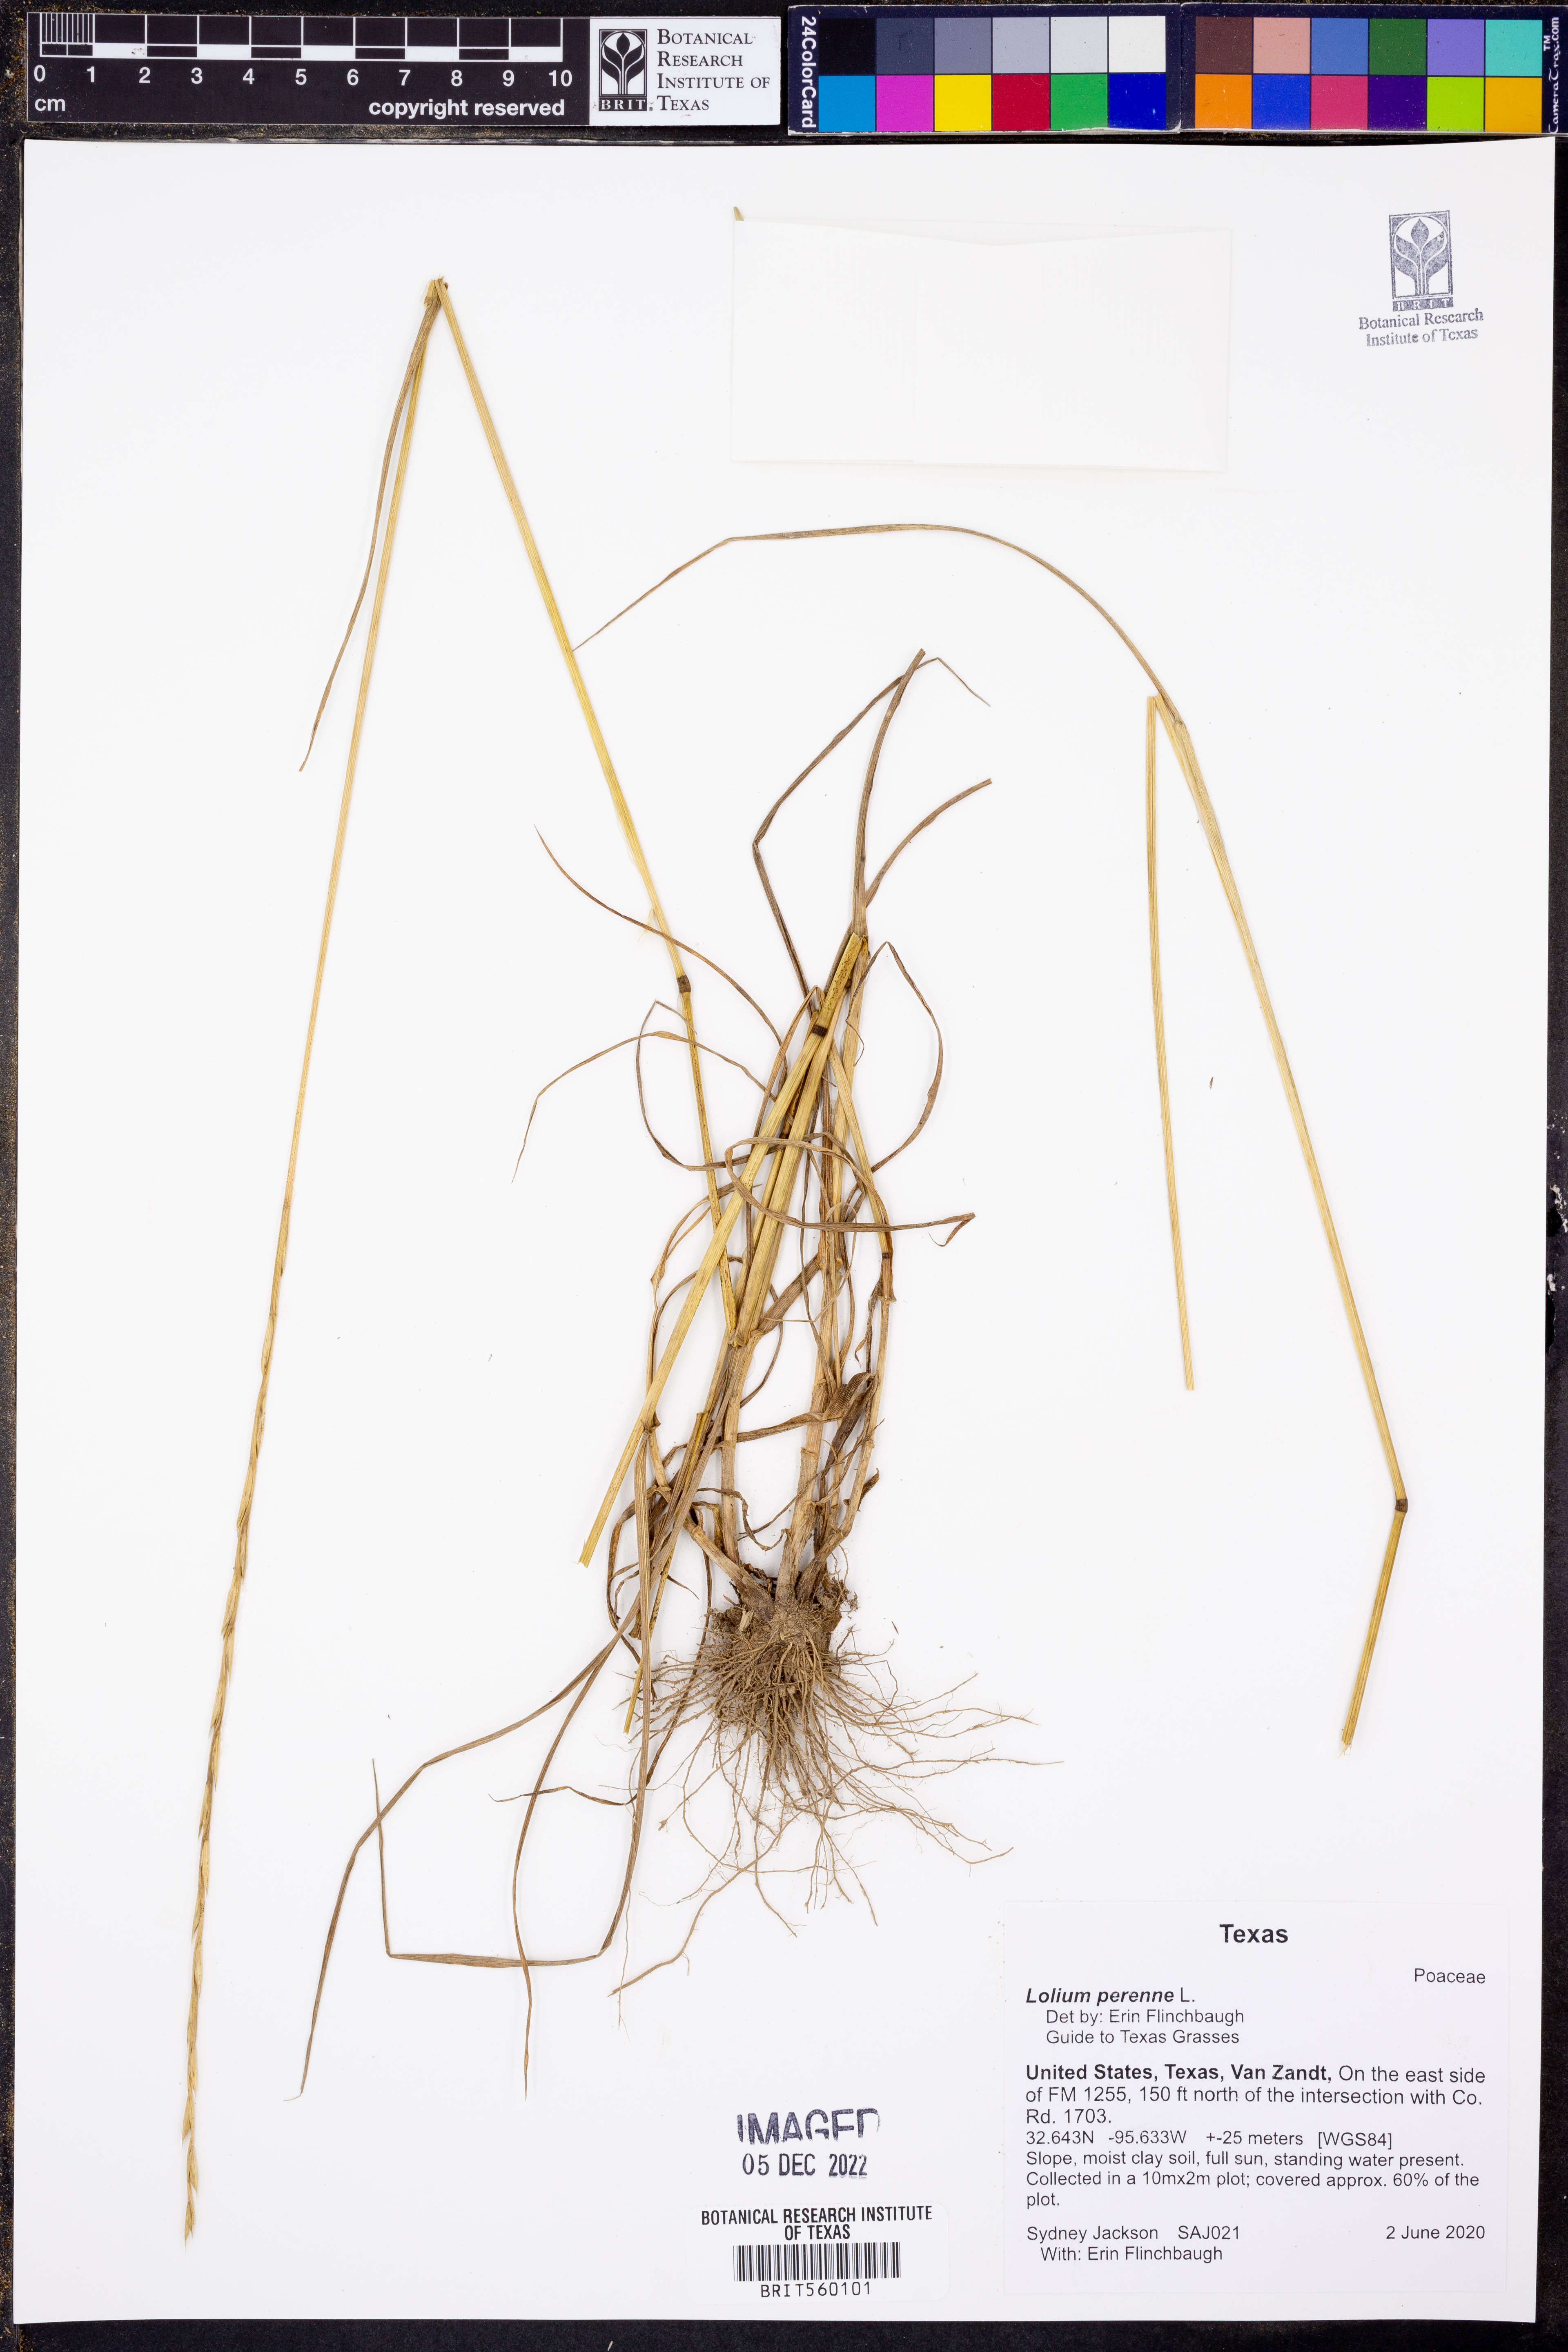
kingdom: Plantae
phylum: Tracheophyta
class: Liliopsida
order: Poales
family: Poaceae
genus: Lolium
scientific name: Lolium perenne
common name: Perennial ryegrass
